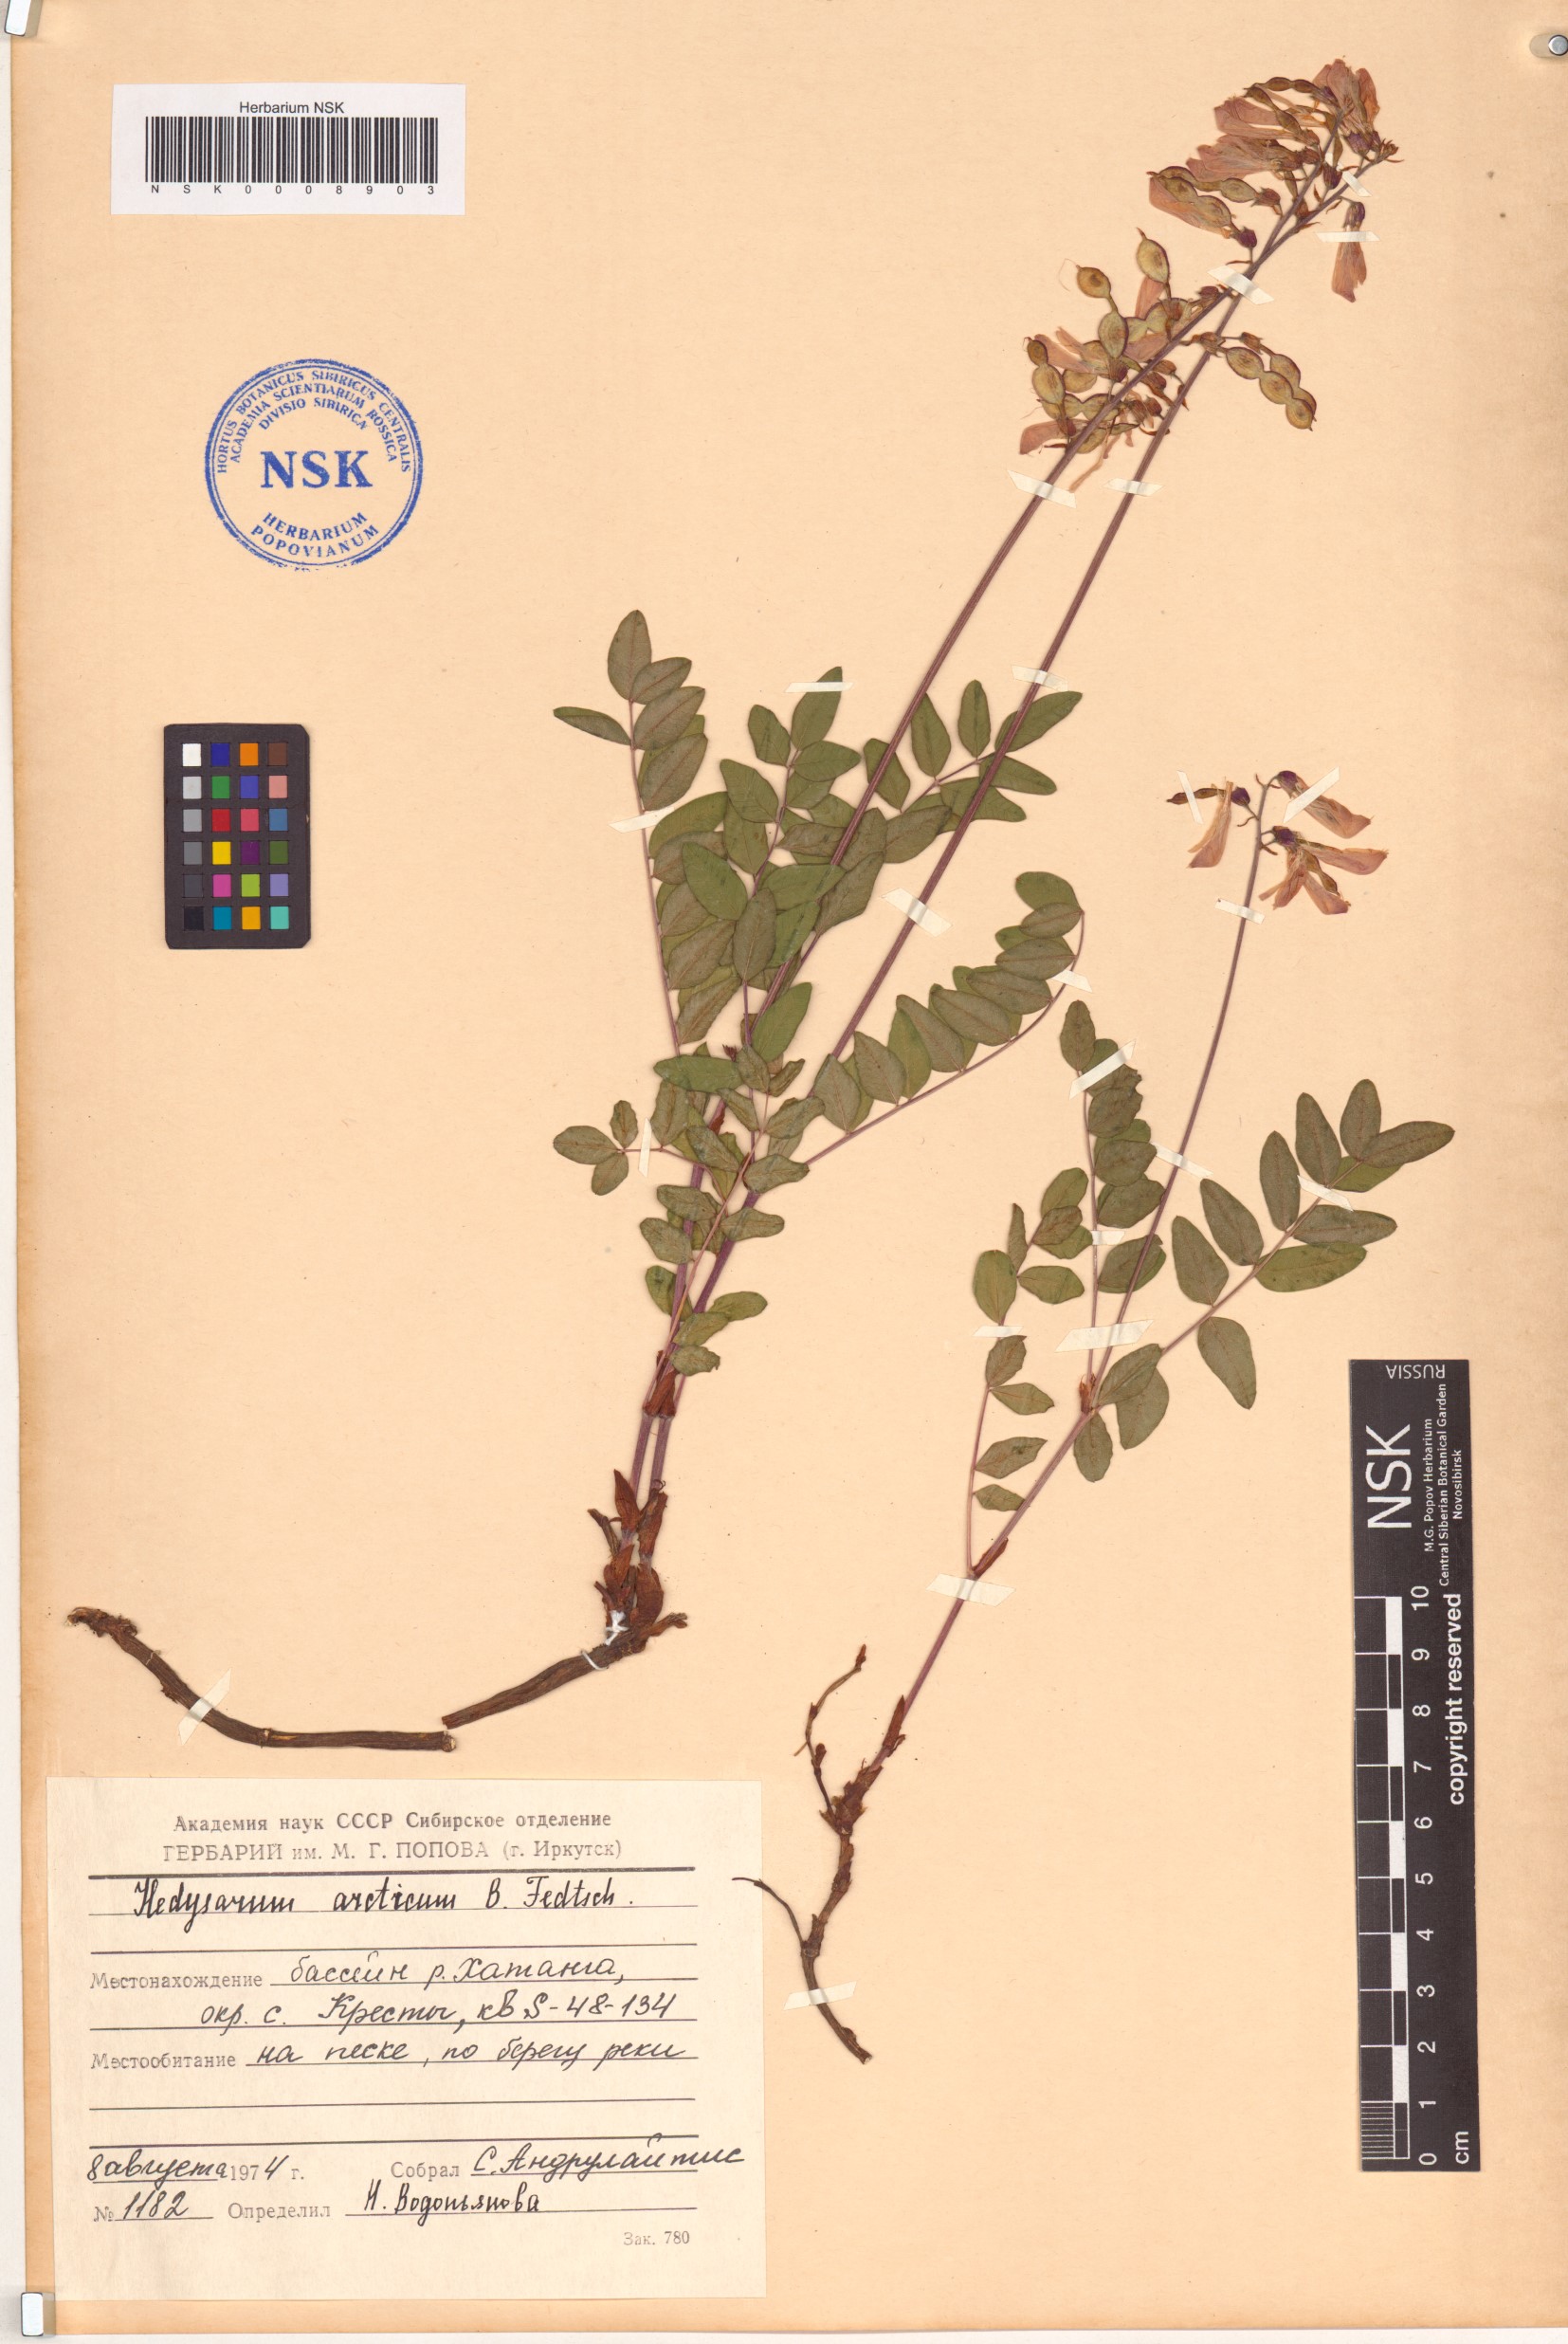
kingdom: Plantae
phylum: Tracheophyta
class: Magnoliopsida
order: Fabales
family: Fabaceae
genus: Hedysarum
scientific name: Hedysarum hedysaroides
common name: Alpine french-honeysuckle
